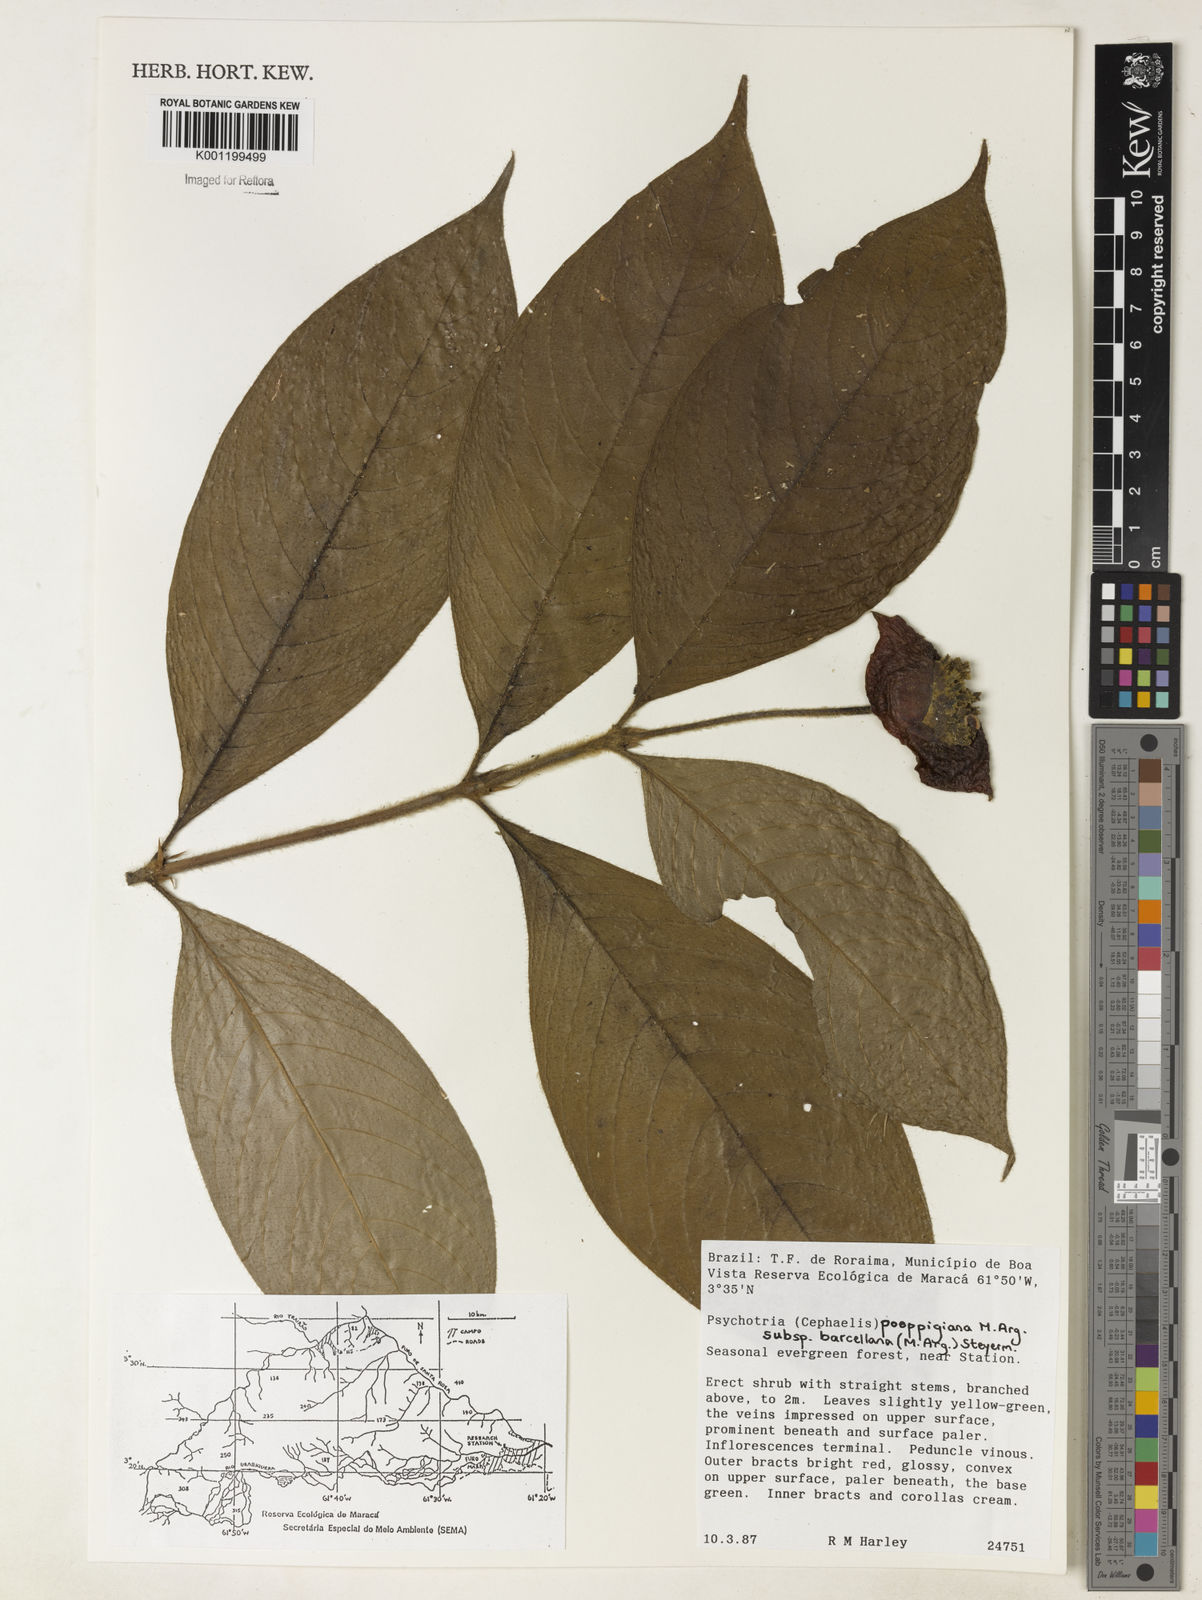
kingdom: Plantae
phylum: Tracheophyta
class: Magnoliopsida
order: Gentianales
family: Rubiaceae
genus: Psychotria
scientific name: Psychotria
